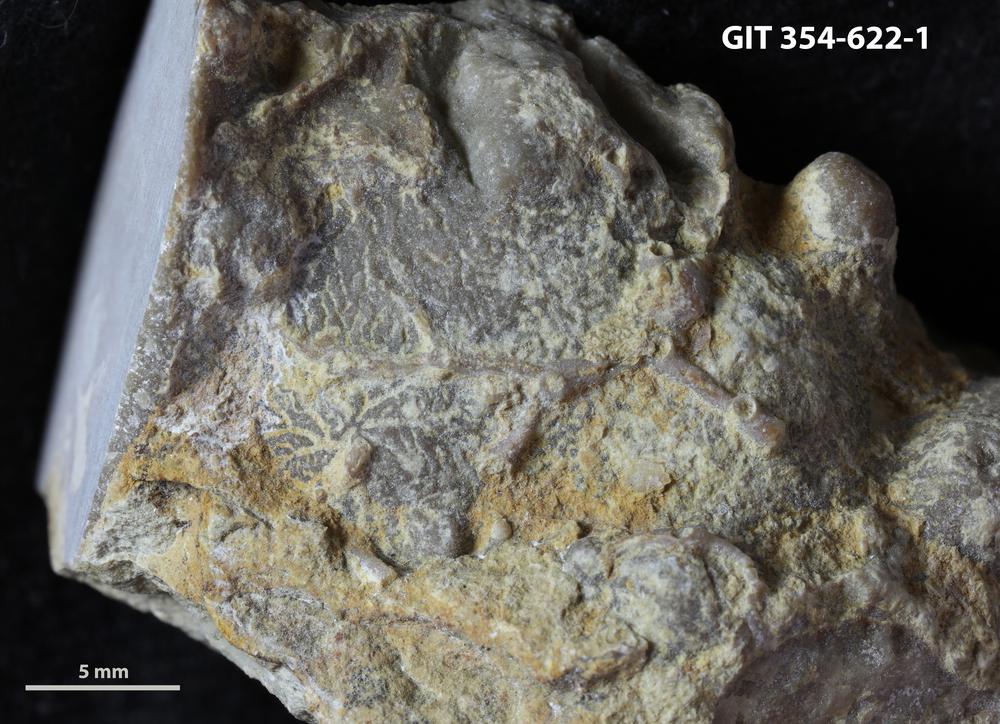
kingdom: Animalia
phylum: Cnidaria
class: Anthozoa
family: Auloporidae
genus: Aulopora
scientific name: Aulopora
